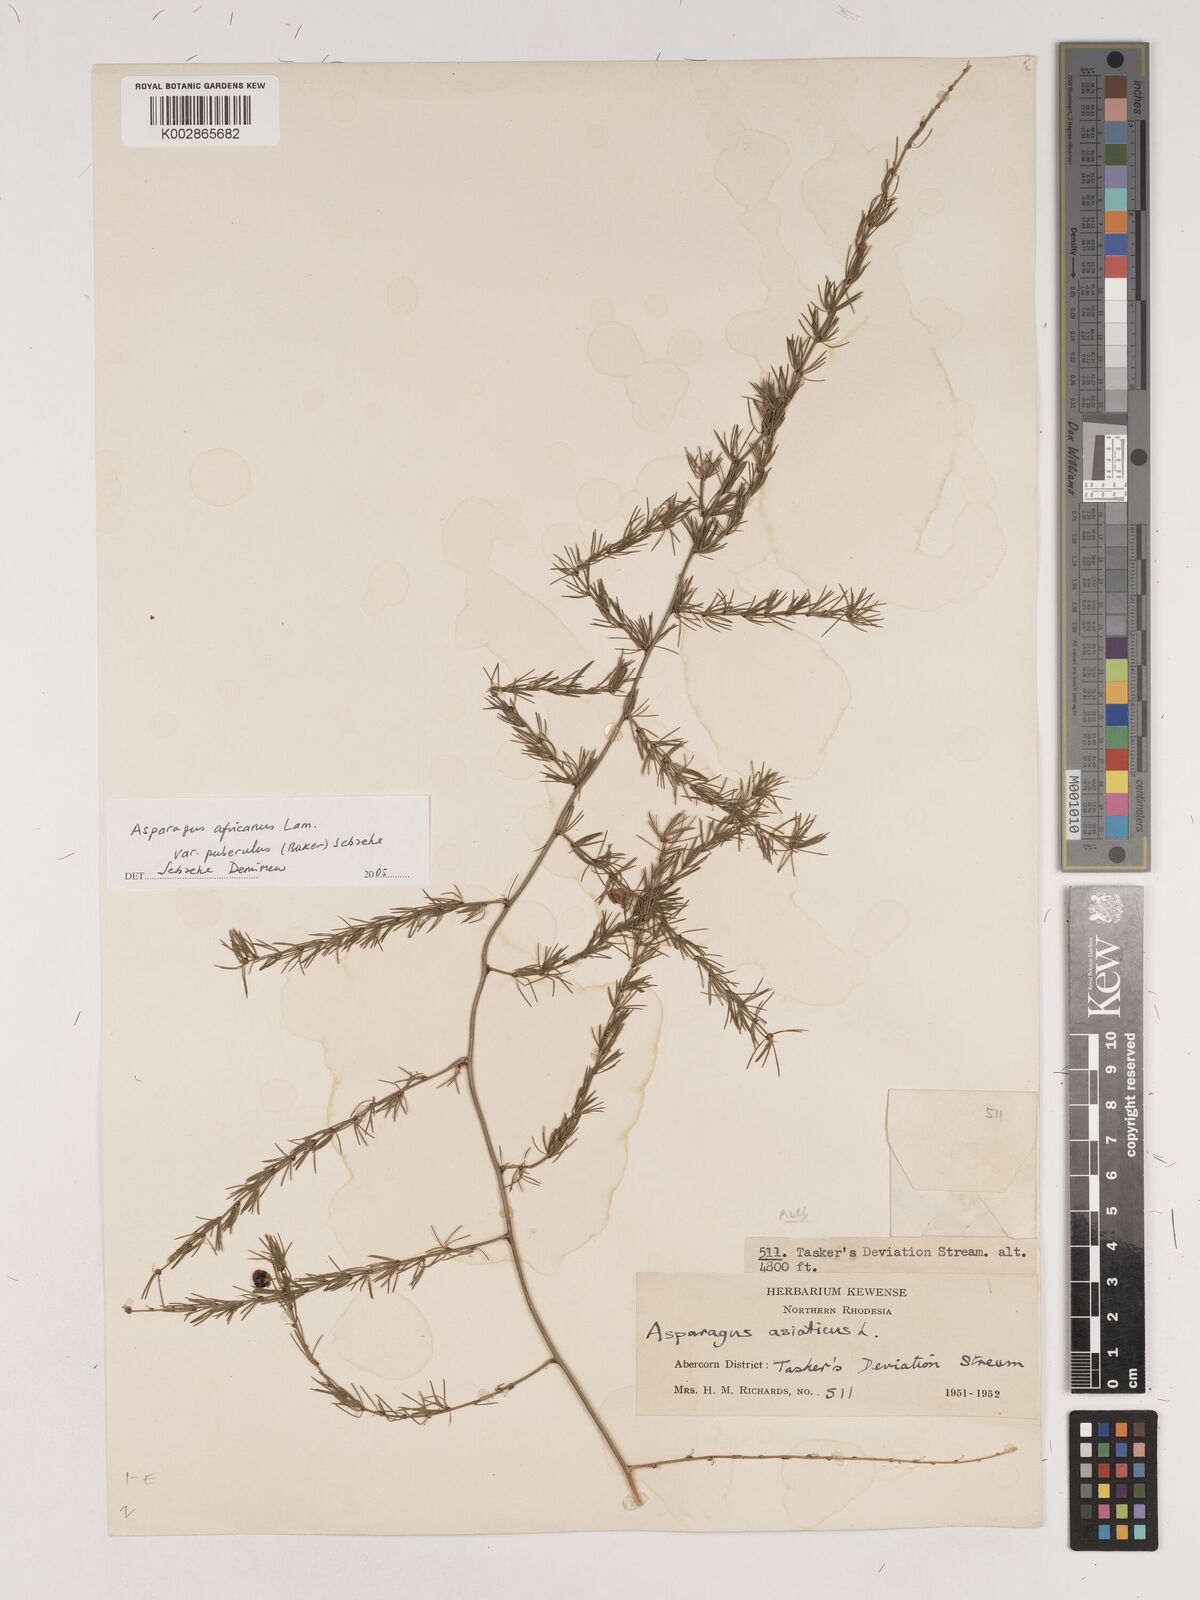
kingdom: Plantae
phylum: Tracheophyta
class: Liliopsida
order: Asparagales
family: Asparagaceae
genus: Asparagus
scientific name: Asparagus
